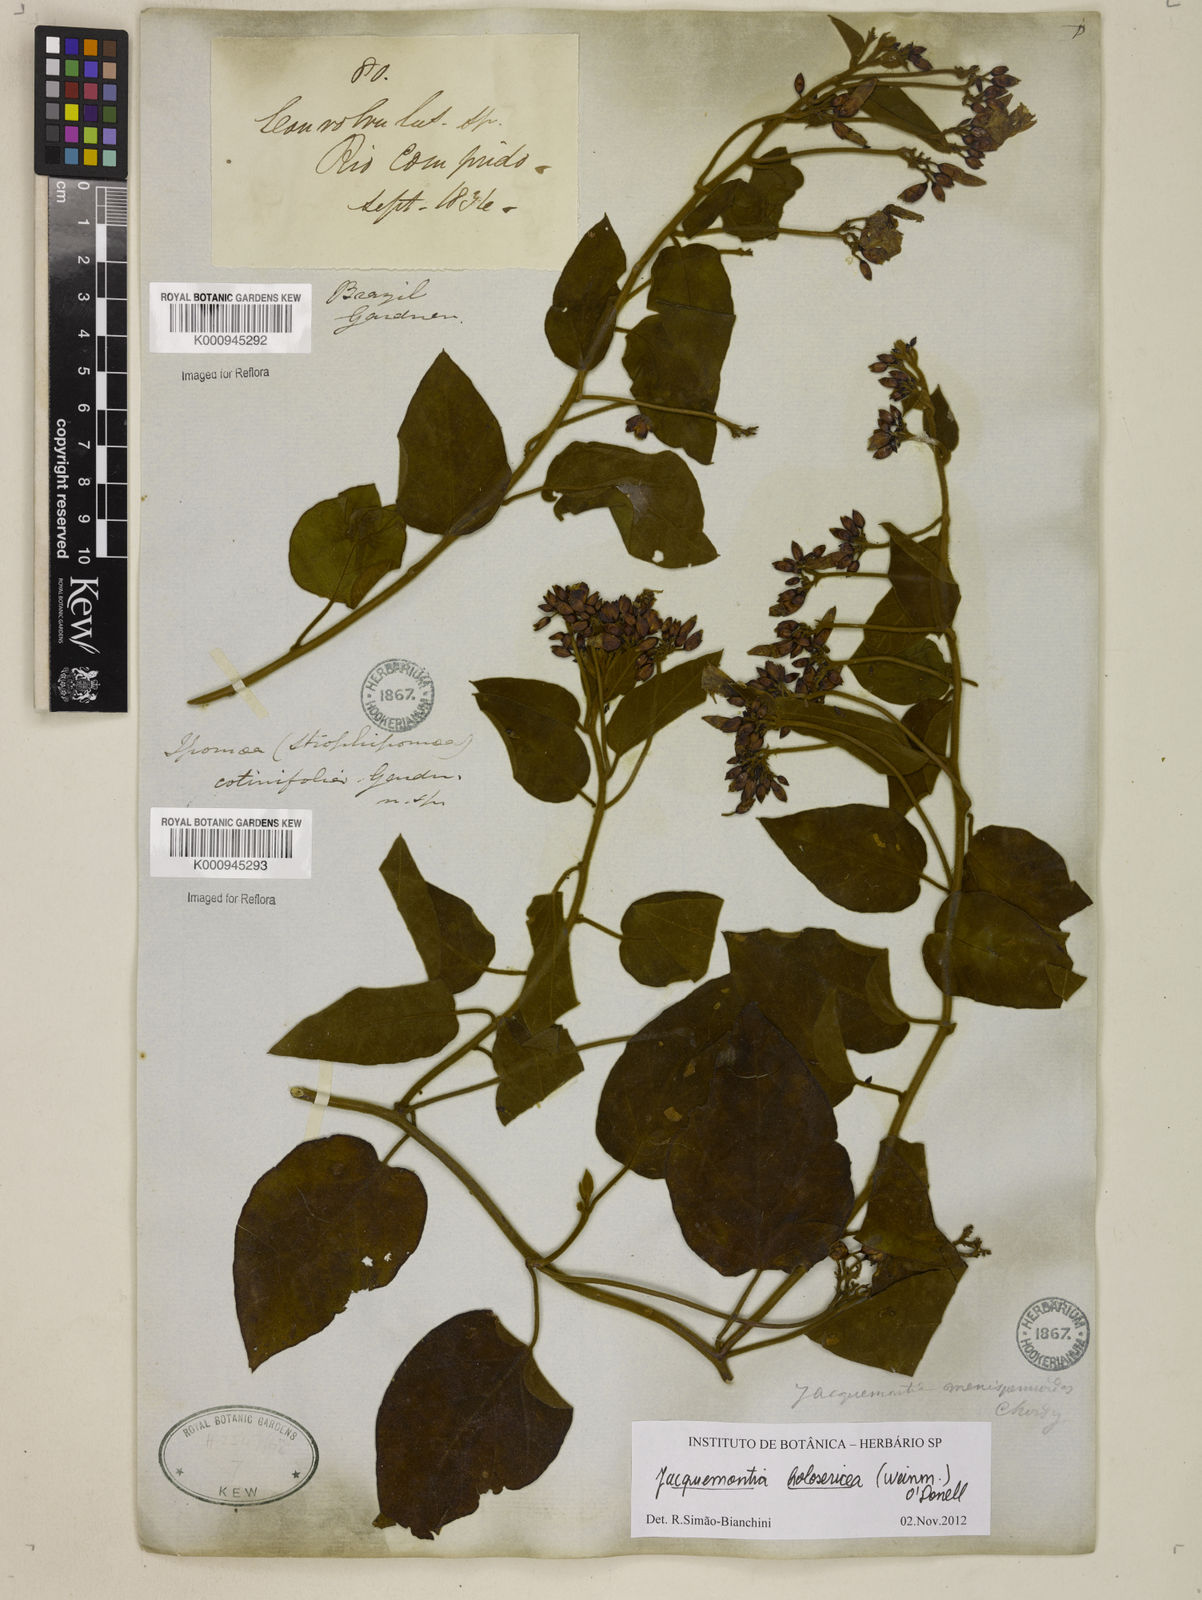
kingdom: Plantae
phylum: Tracheophyta
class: Magnoliopsida
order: Solanales
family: Convolvulaceae
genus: Jacquemontia
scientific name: Jacquemontia holosericea
